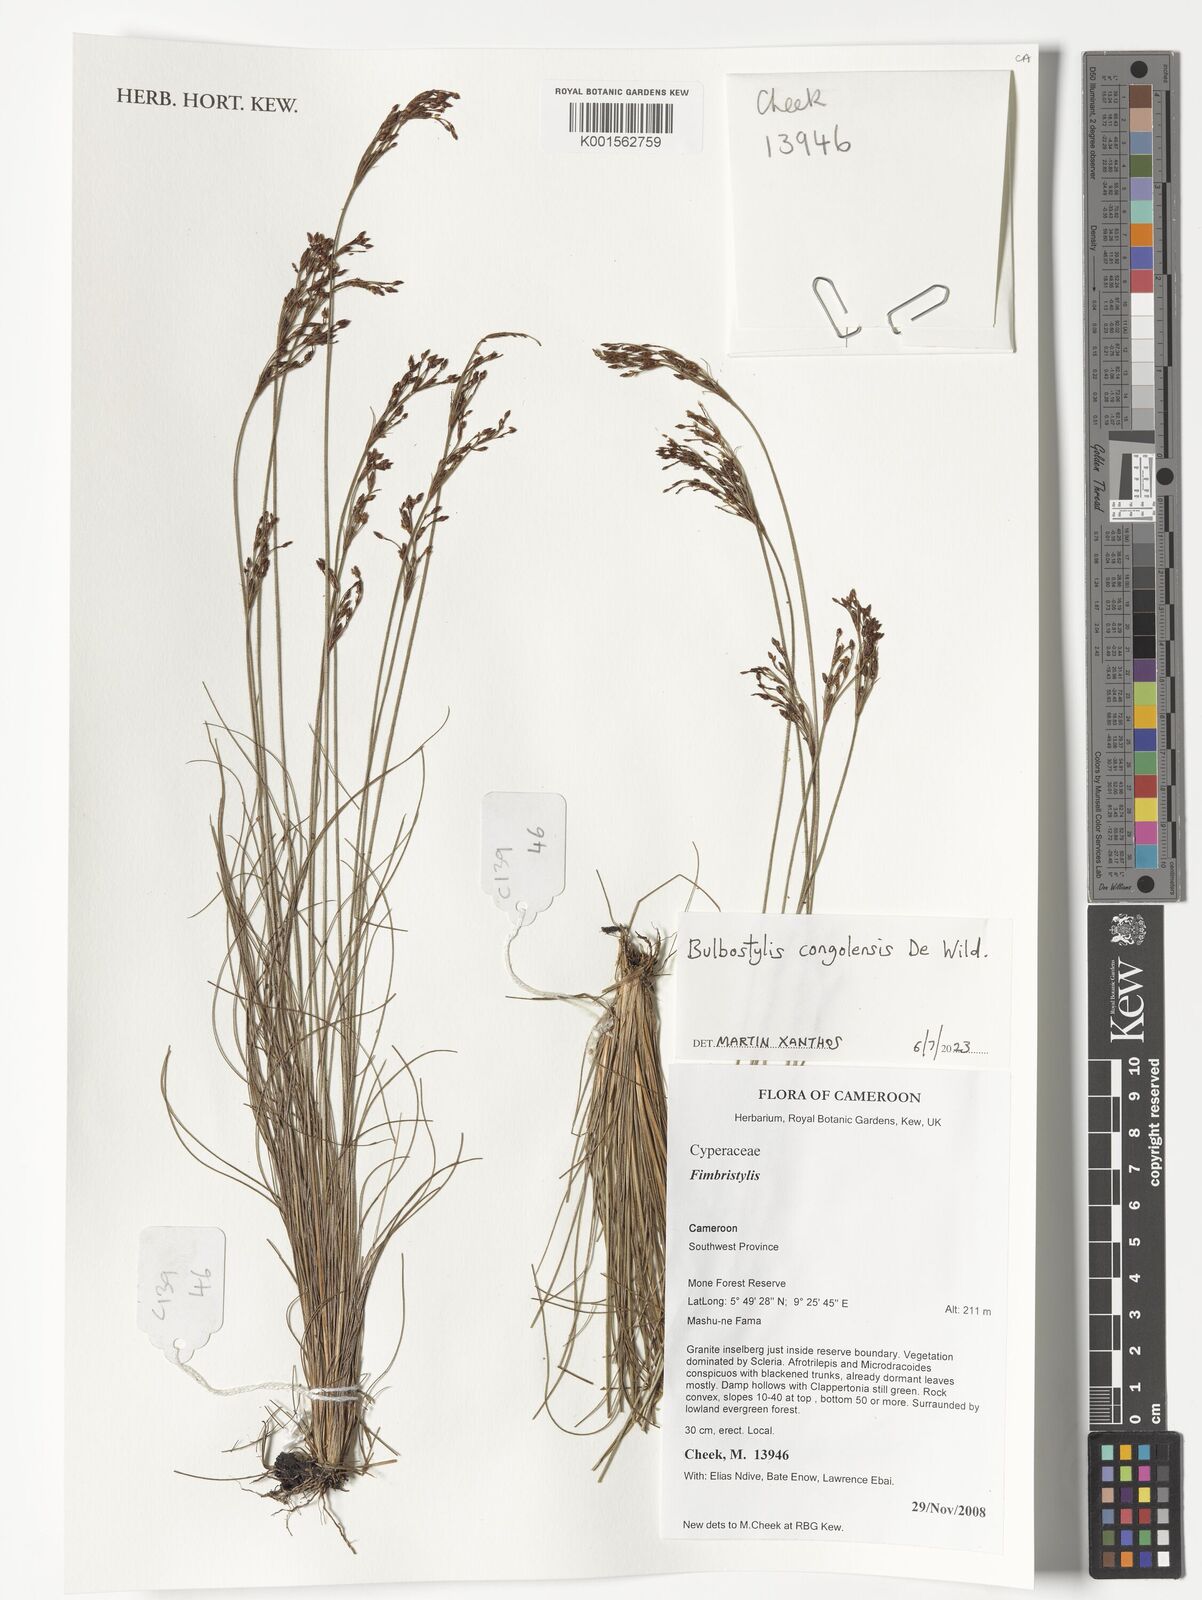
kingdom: Plantae
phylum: Tracheophyta
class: Liliopsida
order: Poales
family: Cyperaceae
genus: Bulbostylis
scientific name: Bulbostylis congolensis
